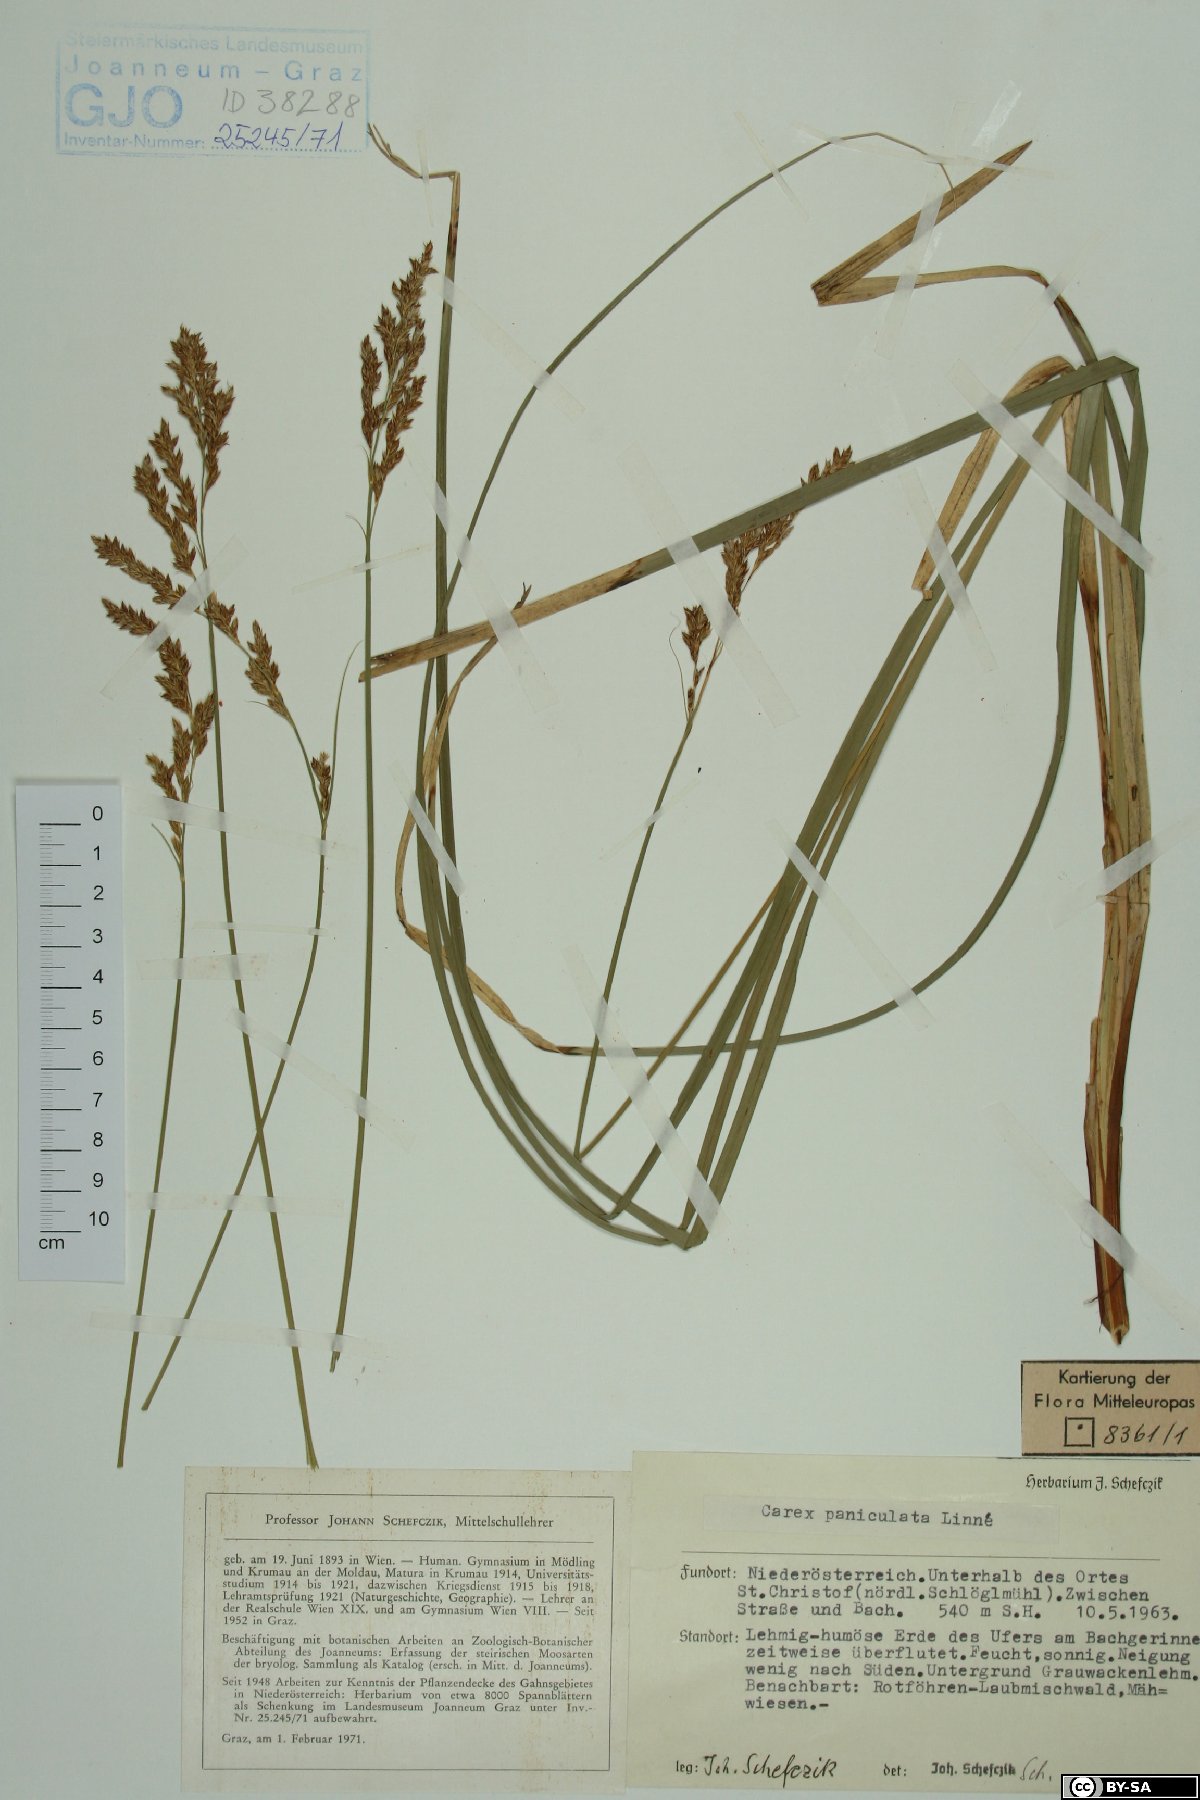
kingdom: Plantae
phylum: Tracheophyta
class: Liliopsida
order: Poales
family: Cyperaceae
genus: Carex
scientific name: Carex paniculata
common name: Greater tussock-sedge
